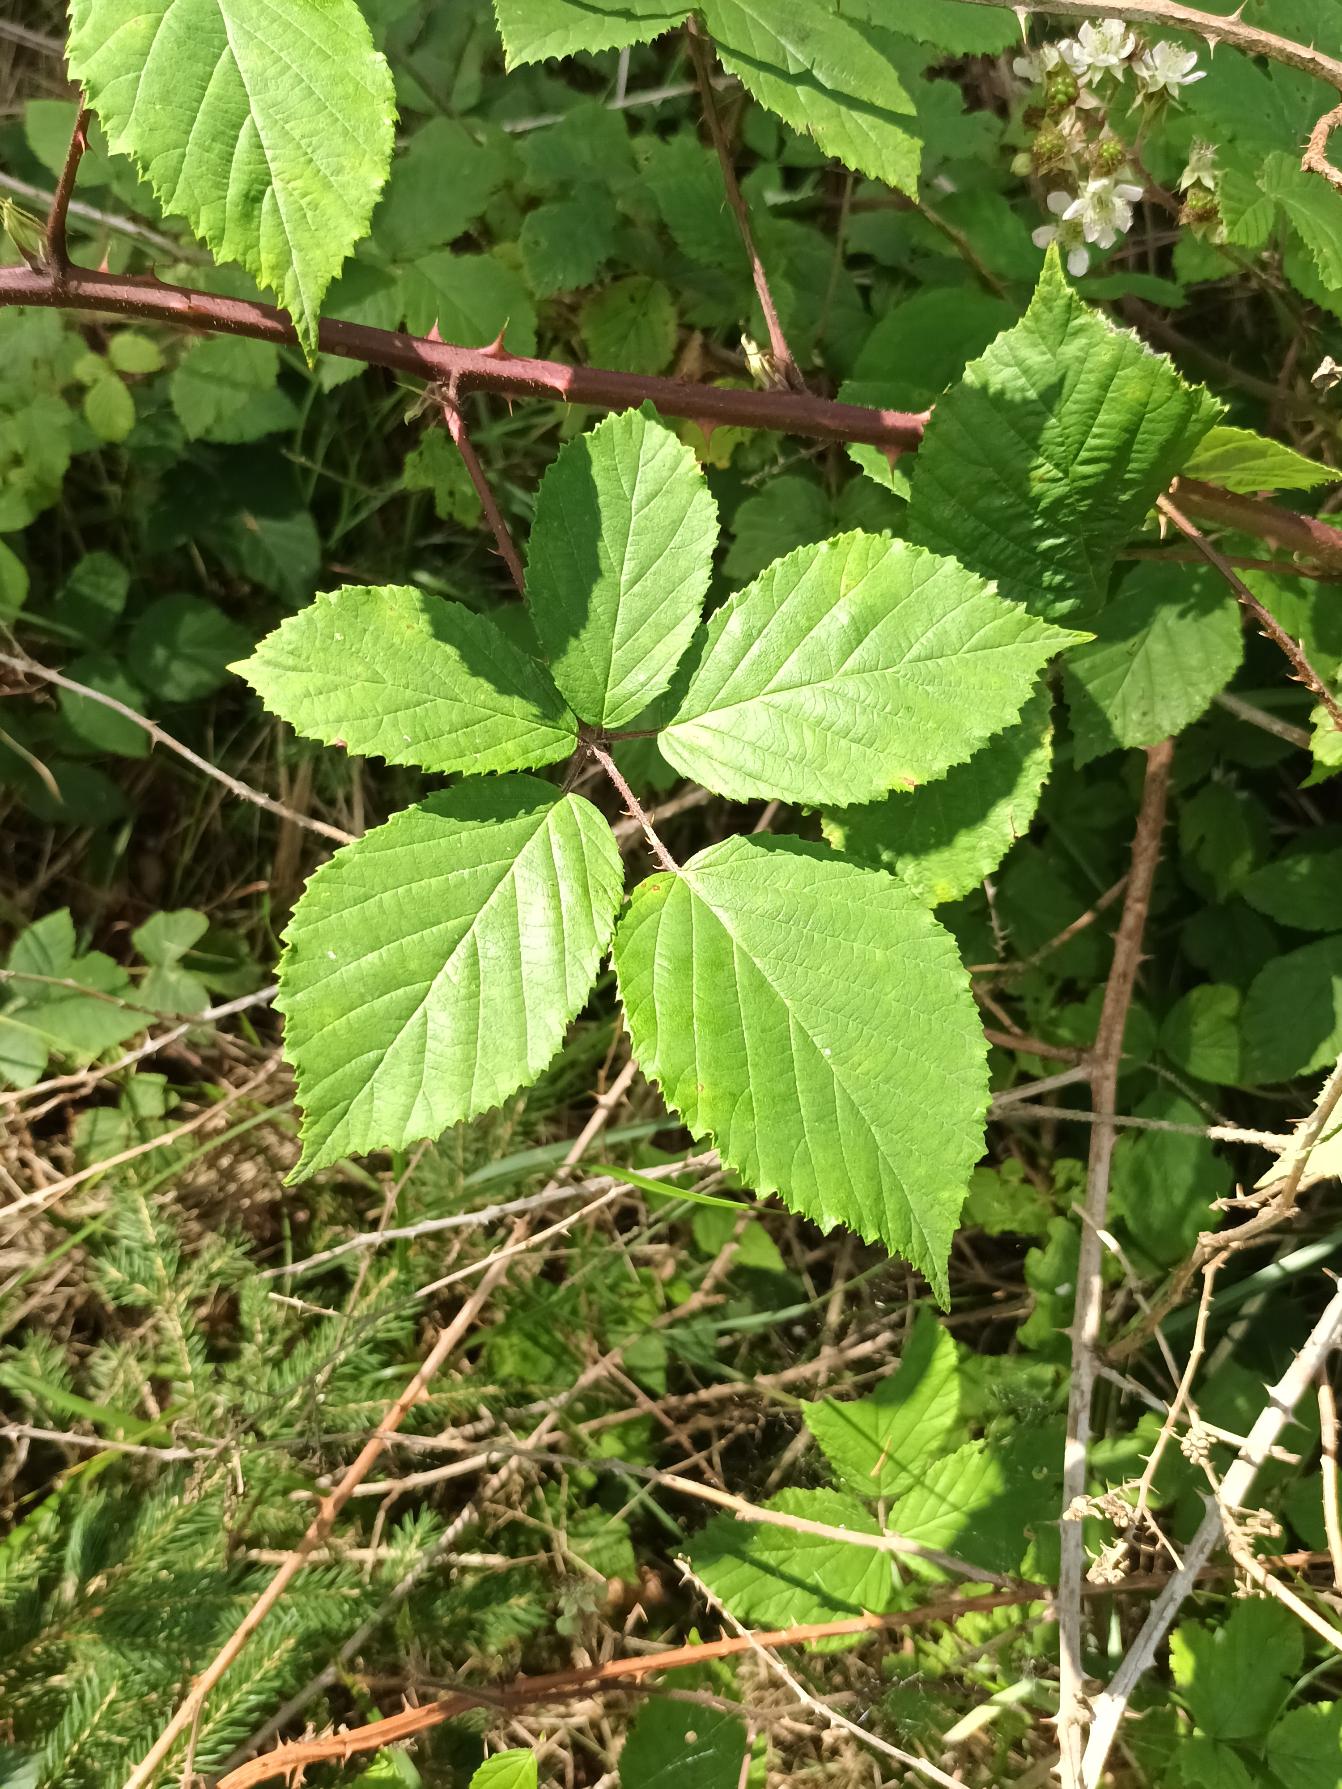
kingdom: Plantae
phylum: Tracheophyta
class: Magnoliopsida
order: Rosales
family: Rosaceae
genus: Rubus
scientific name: Rubus radula
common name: Rasperu brombær
